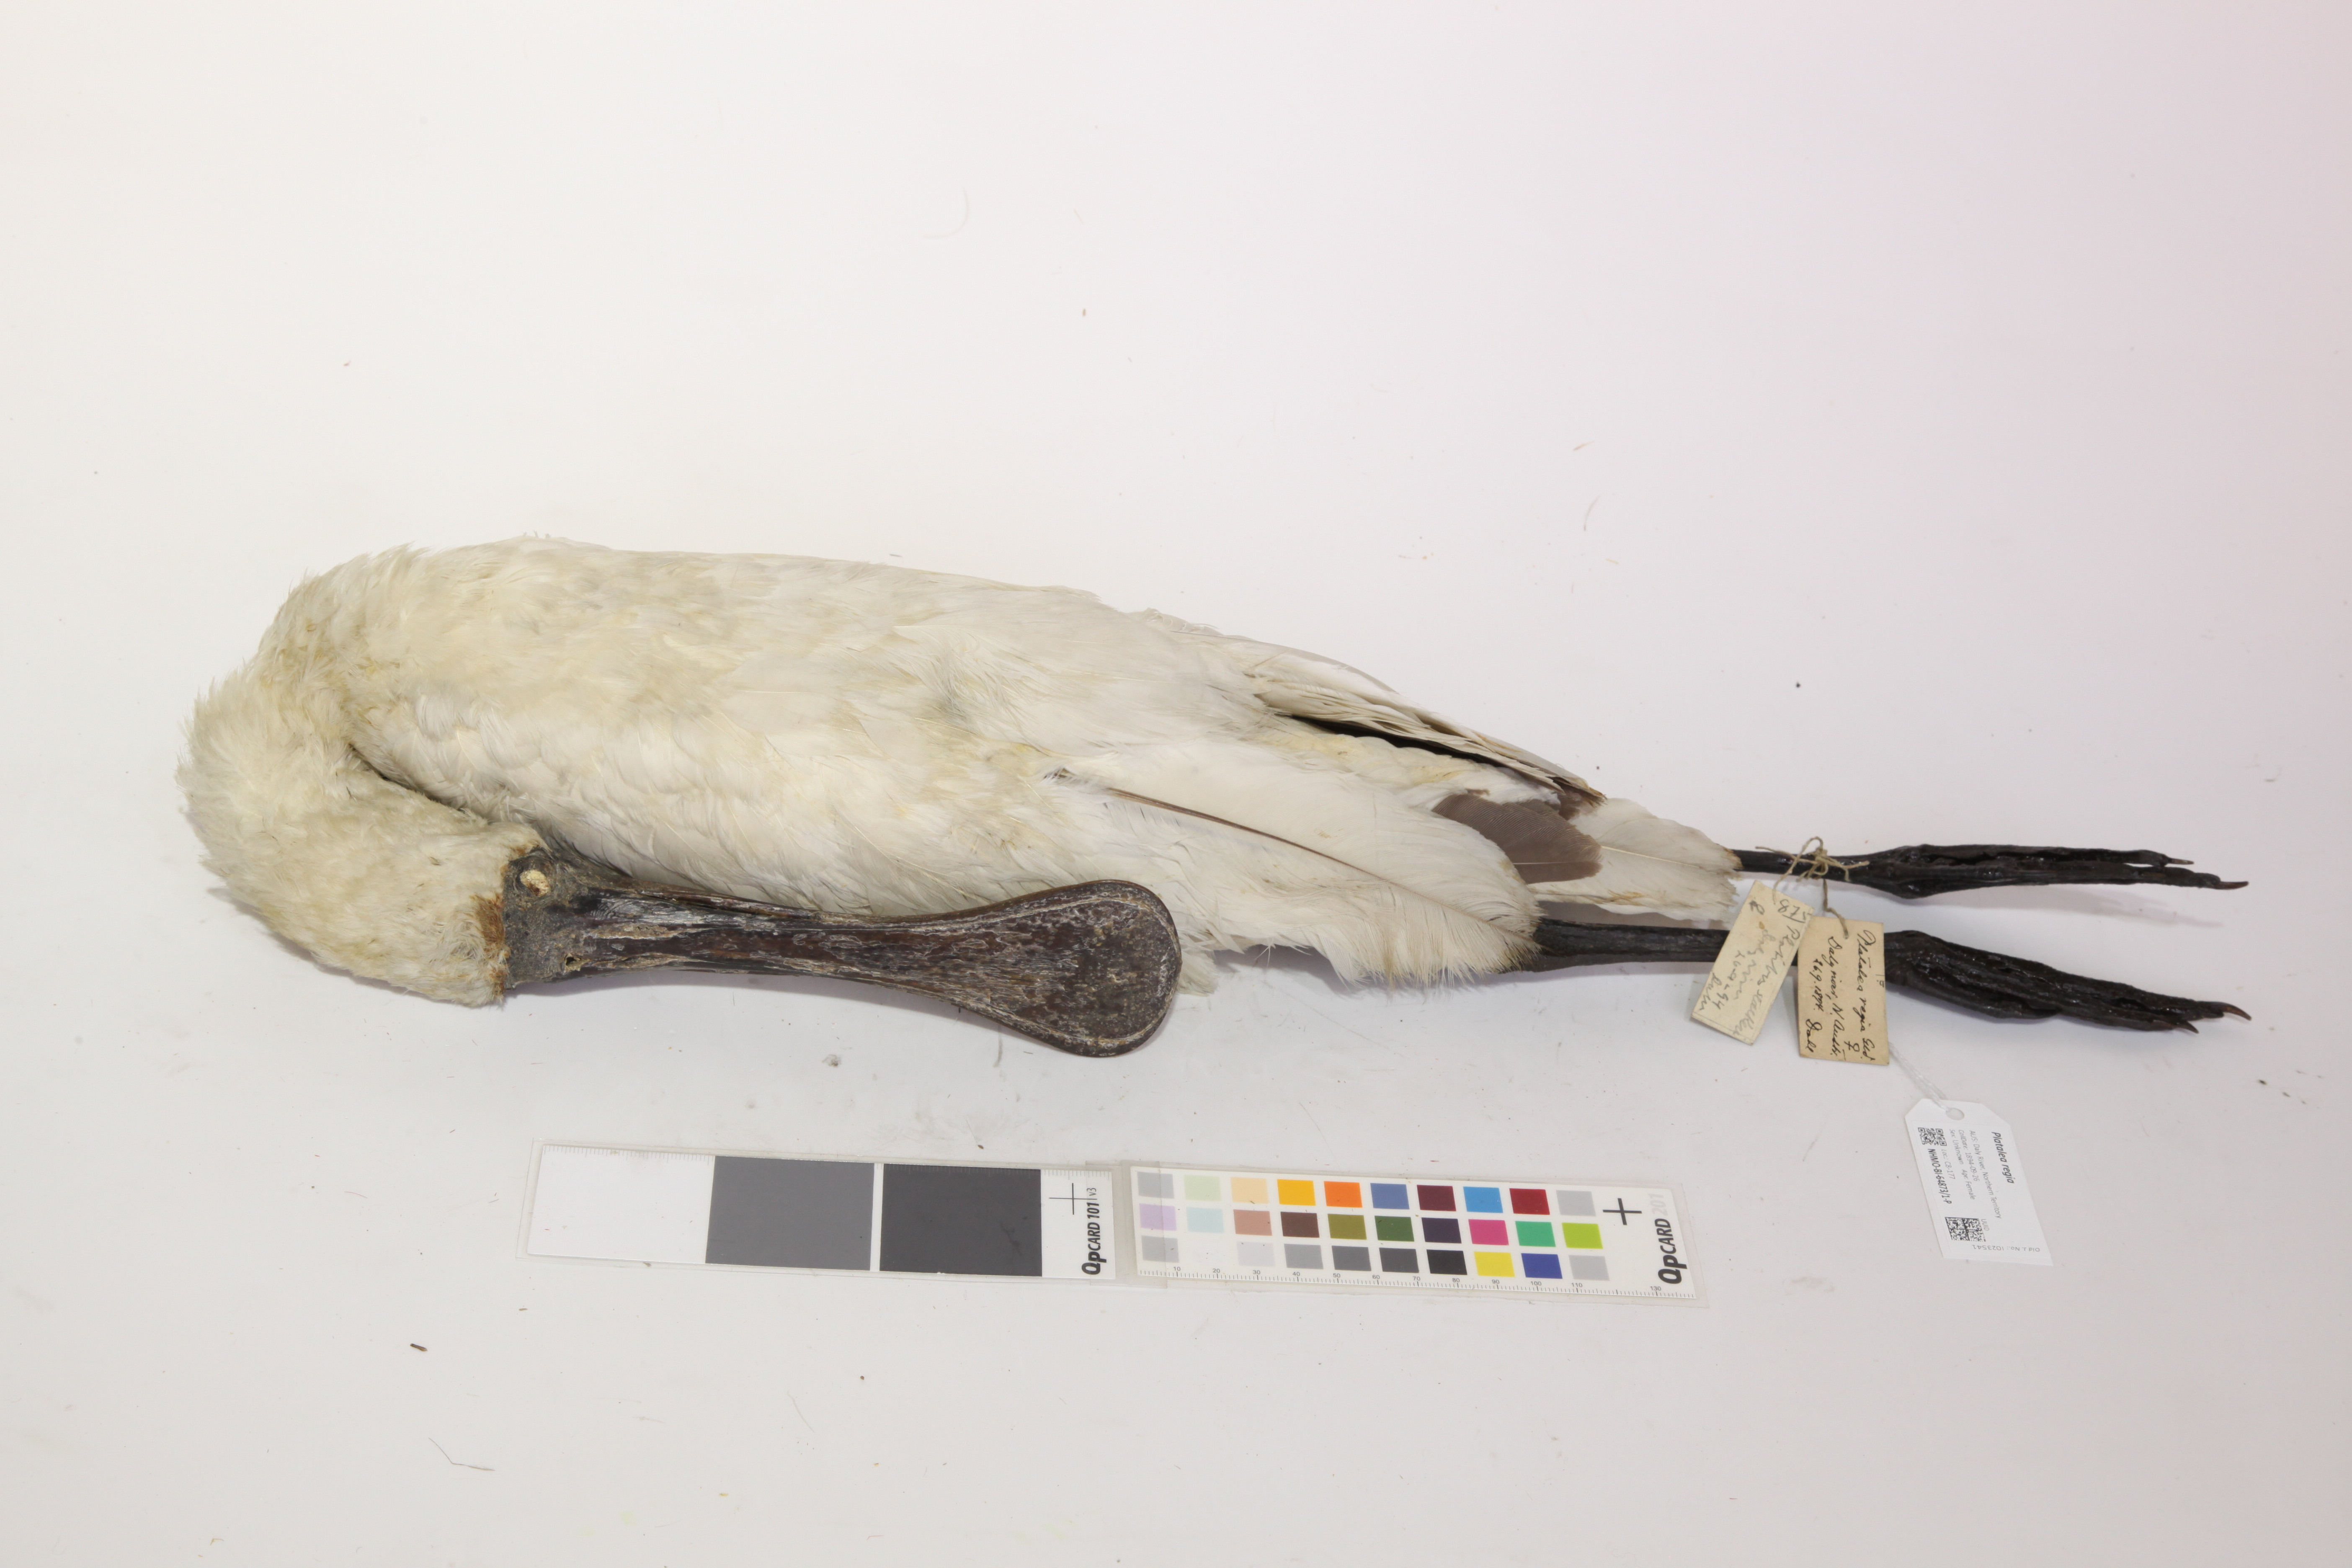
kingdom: Animalia
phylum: Chordata
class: Aves
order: Pelecaniformes
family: Threskiornithidae
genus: Platalea
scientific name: Platalea regia
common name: Royal spoonbill
